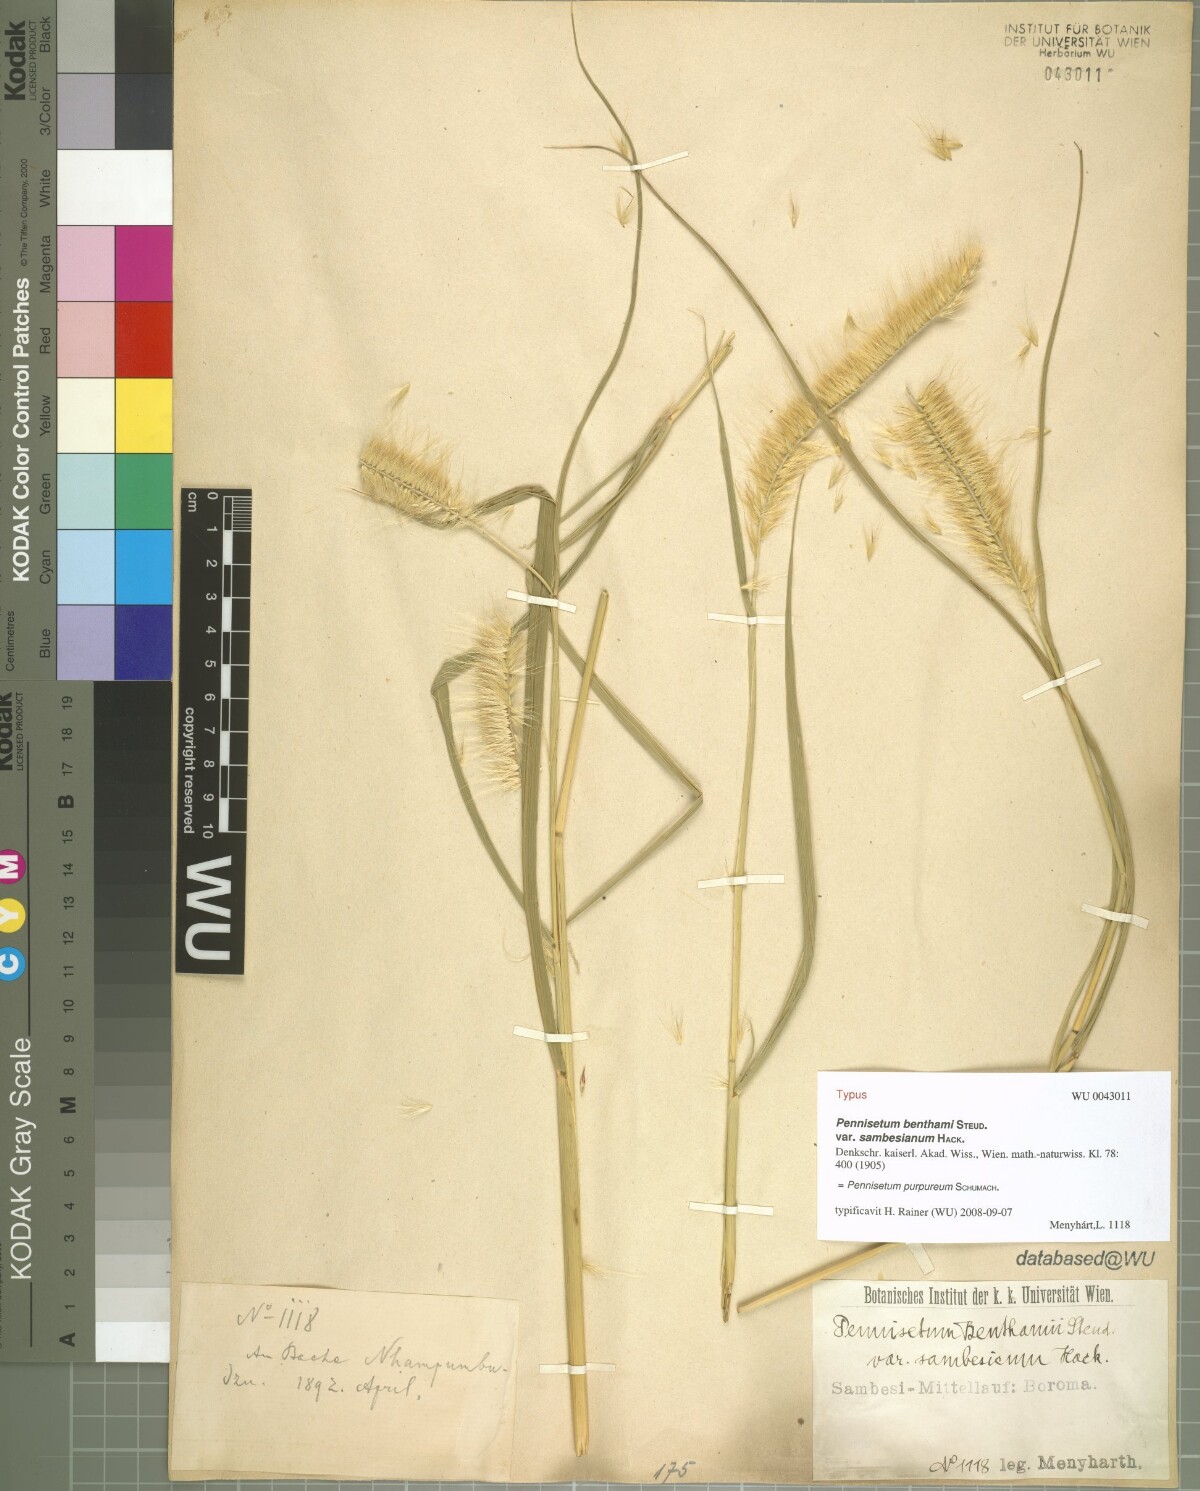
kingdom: Plantae
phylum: Tracheophyta
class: Liliopsida
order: Poales
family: Poaceae
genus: Cenchrus
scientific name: Cenchrus purpureus
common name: Elephant grass
